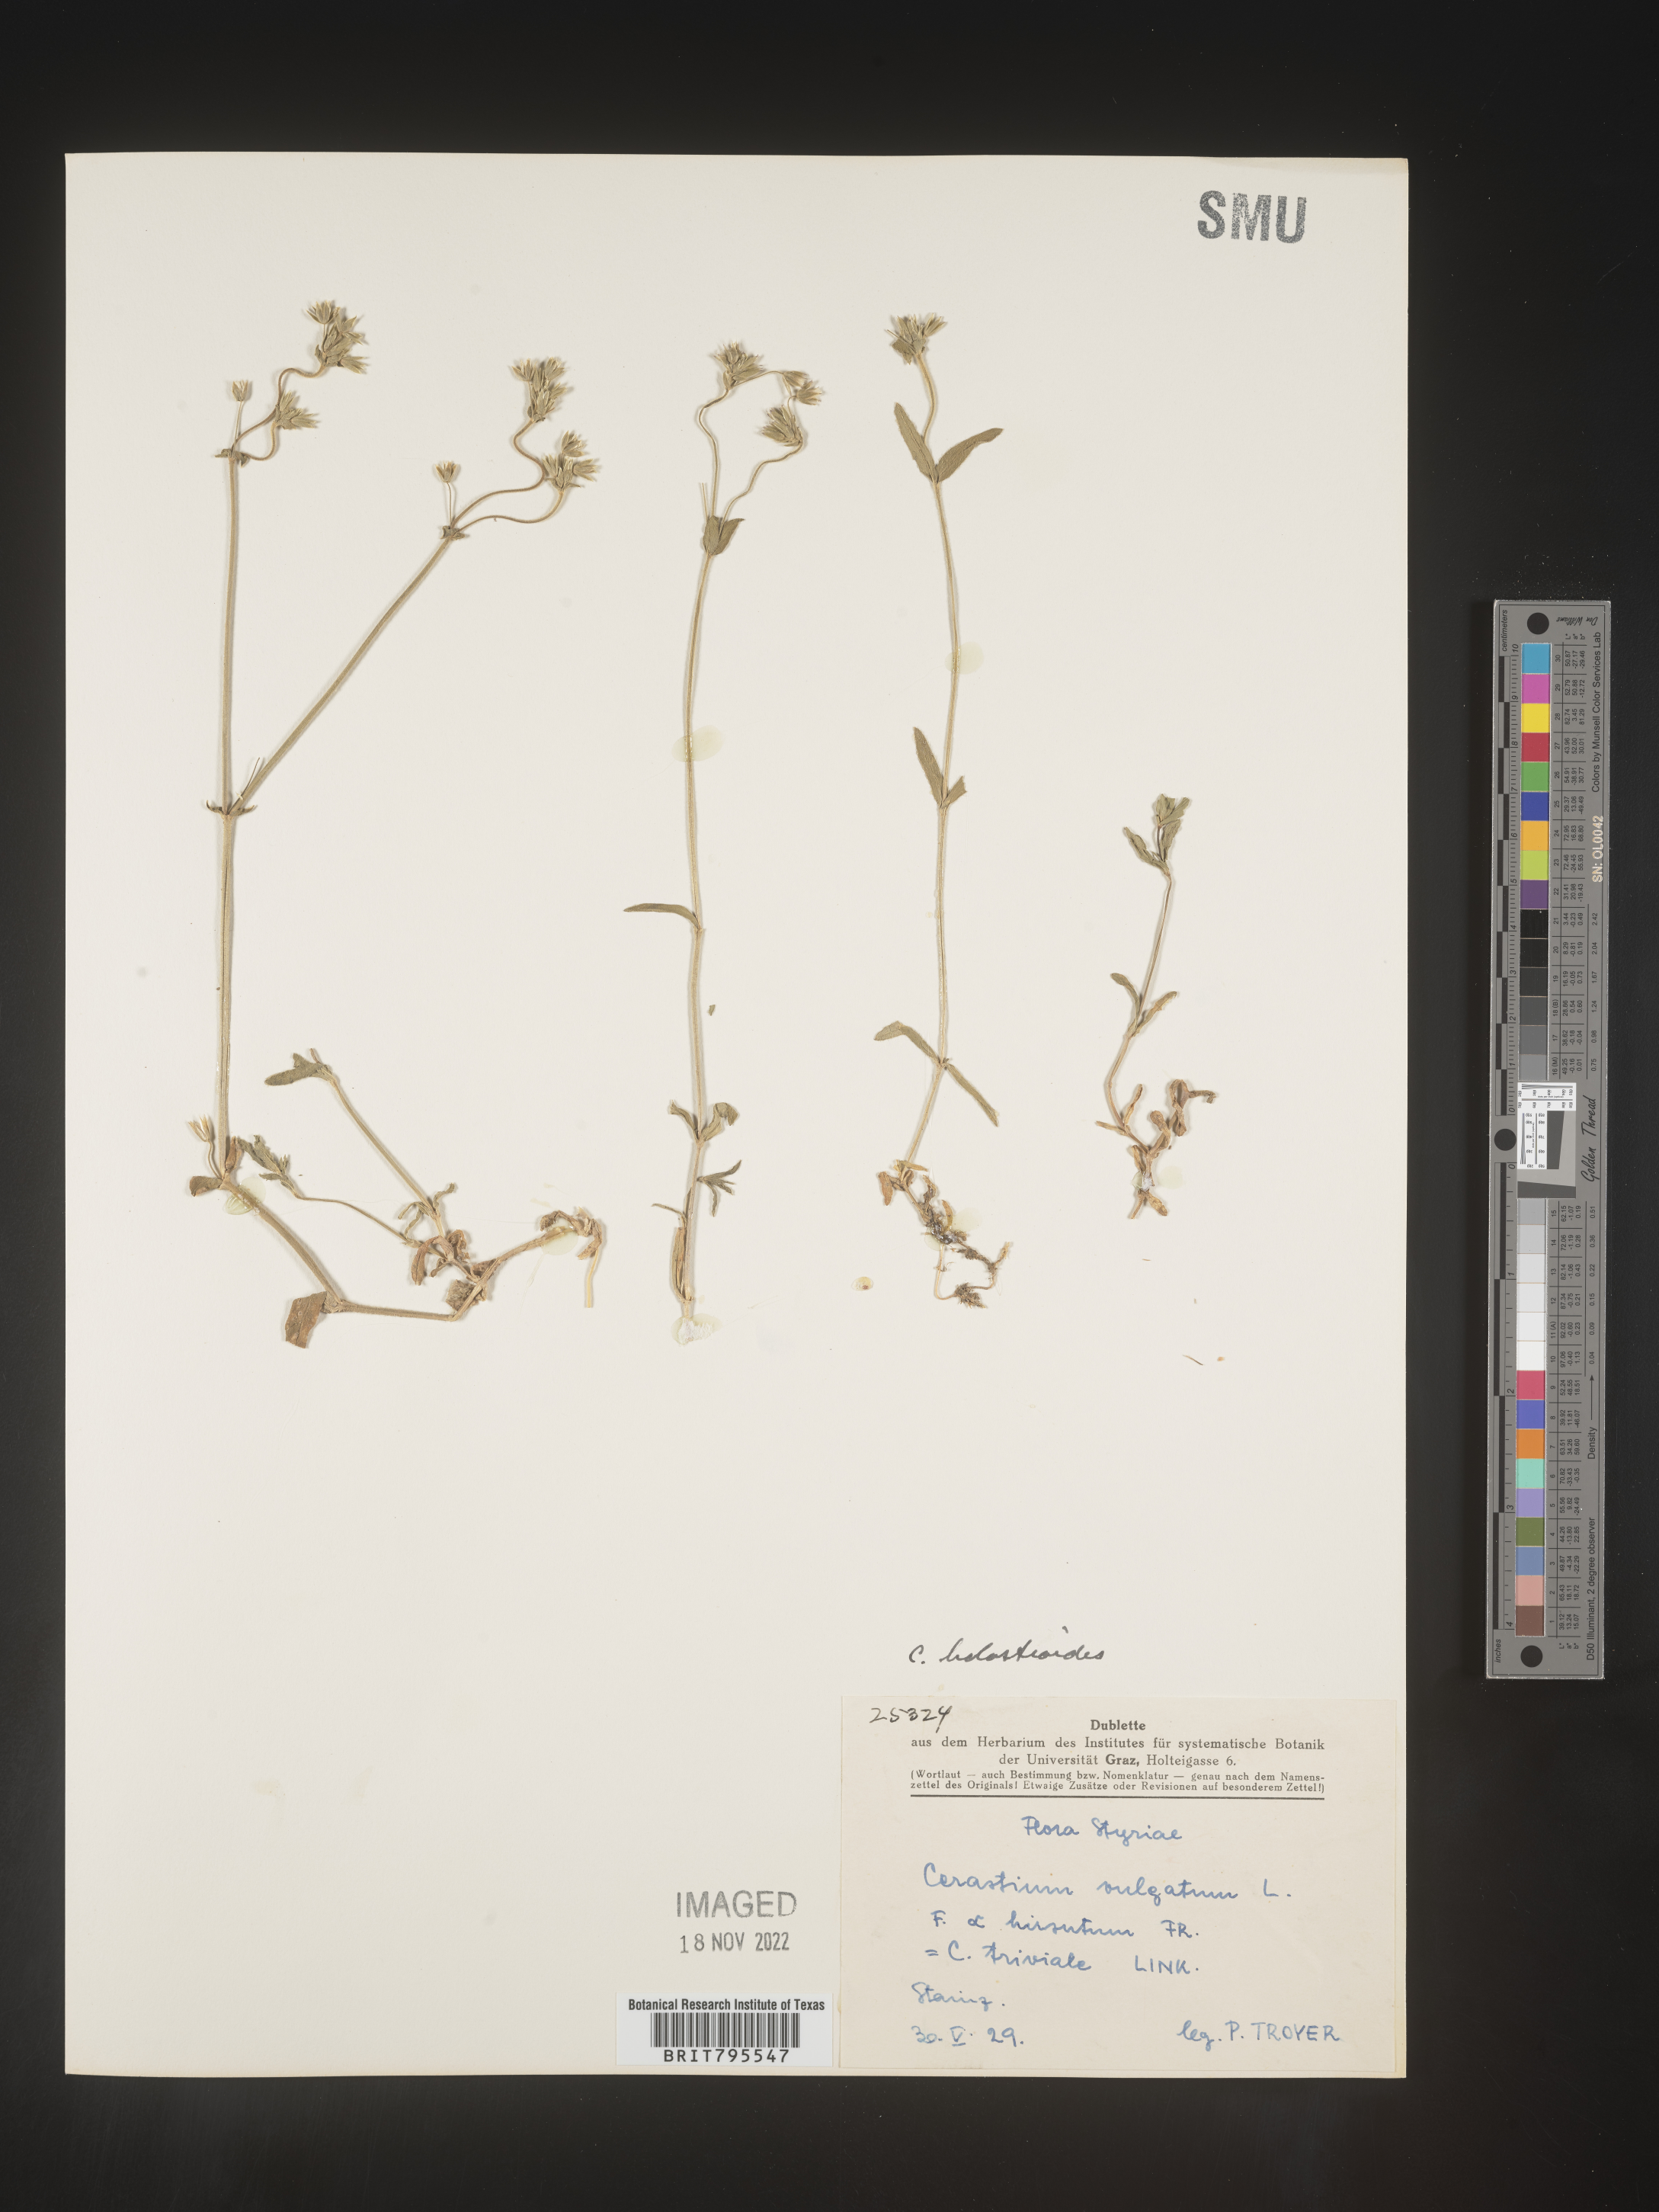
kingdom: Plantae
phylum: Tracheophyta
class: Magnoliopsida
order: Caryophyllales
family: Caryophyllaceae
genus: Cerastium
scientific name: Cerastium
